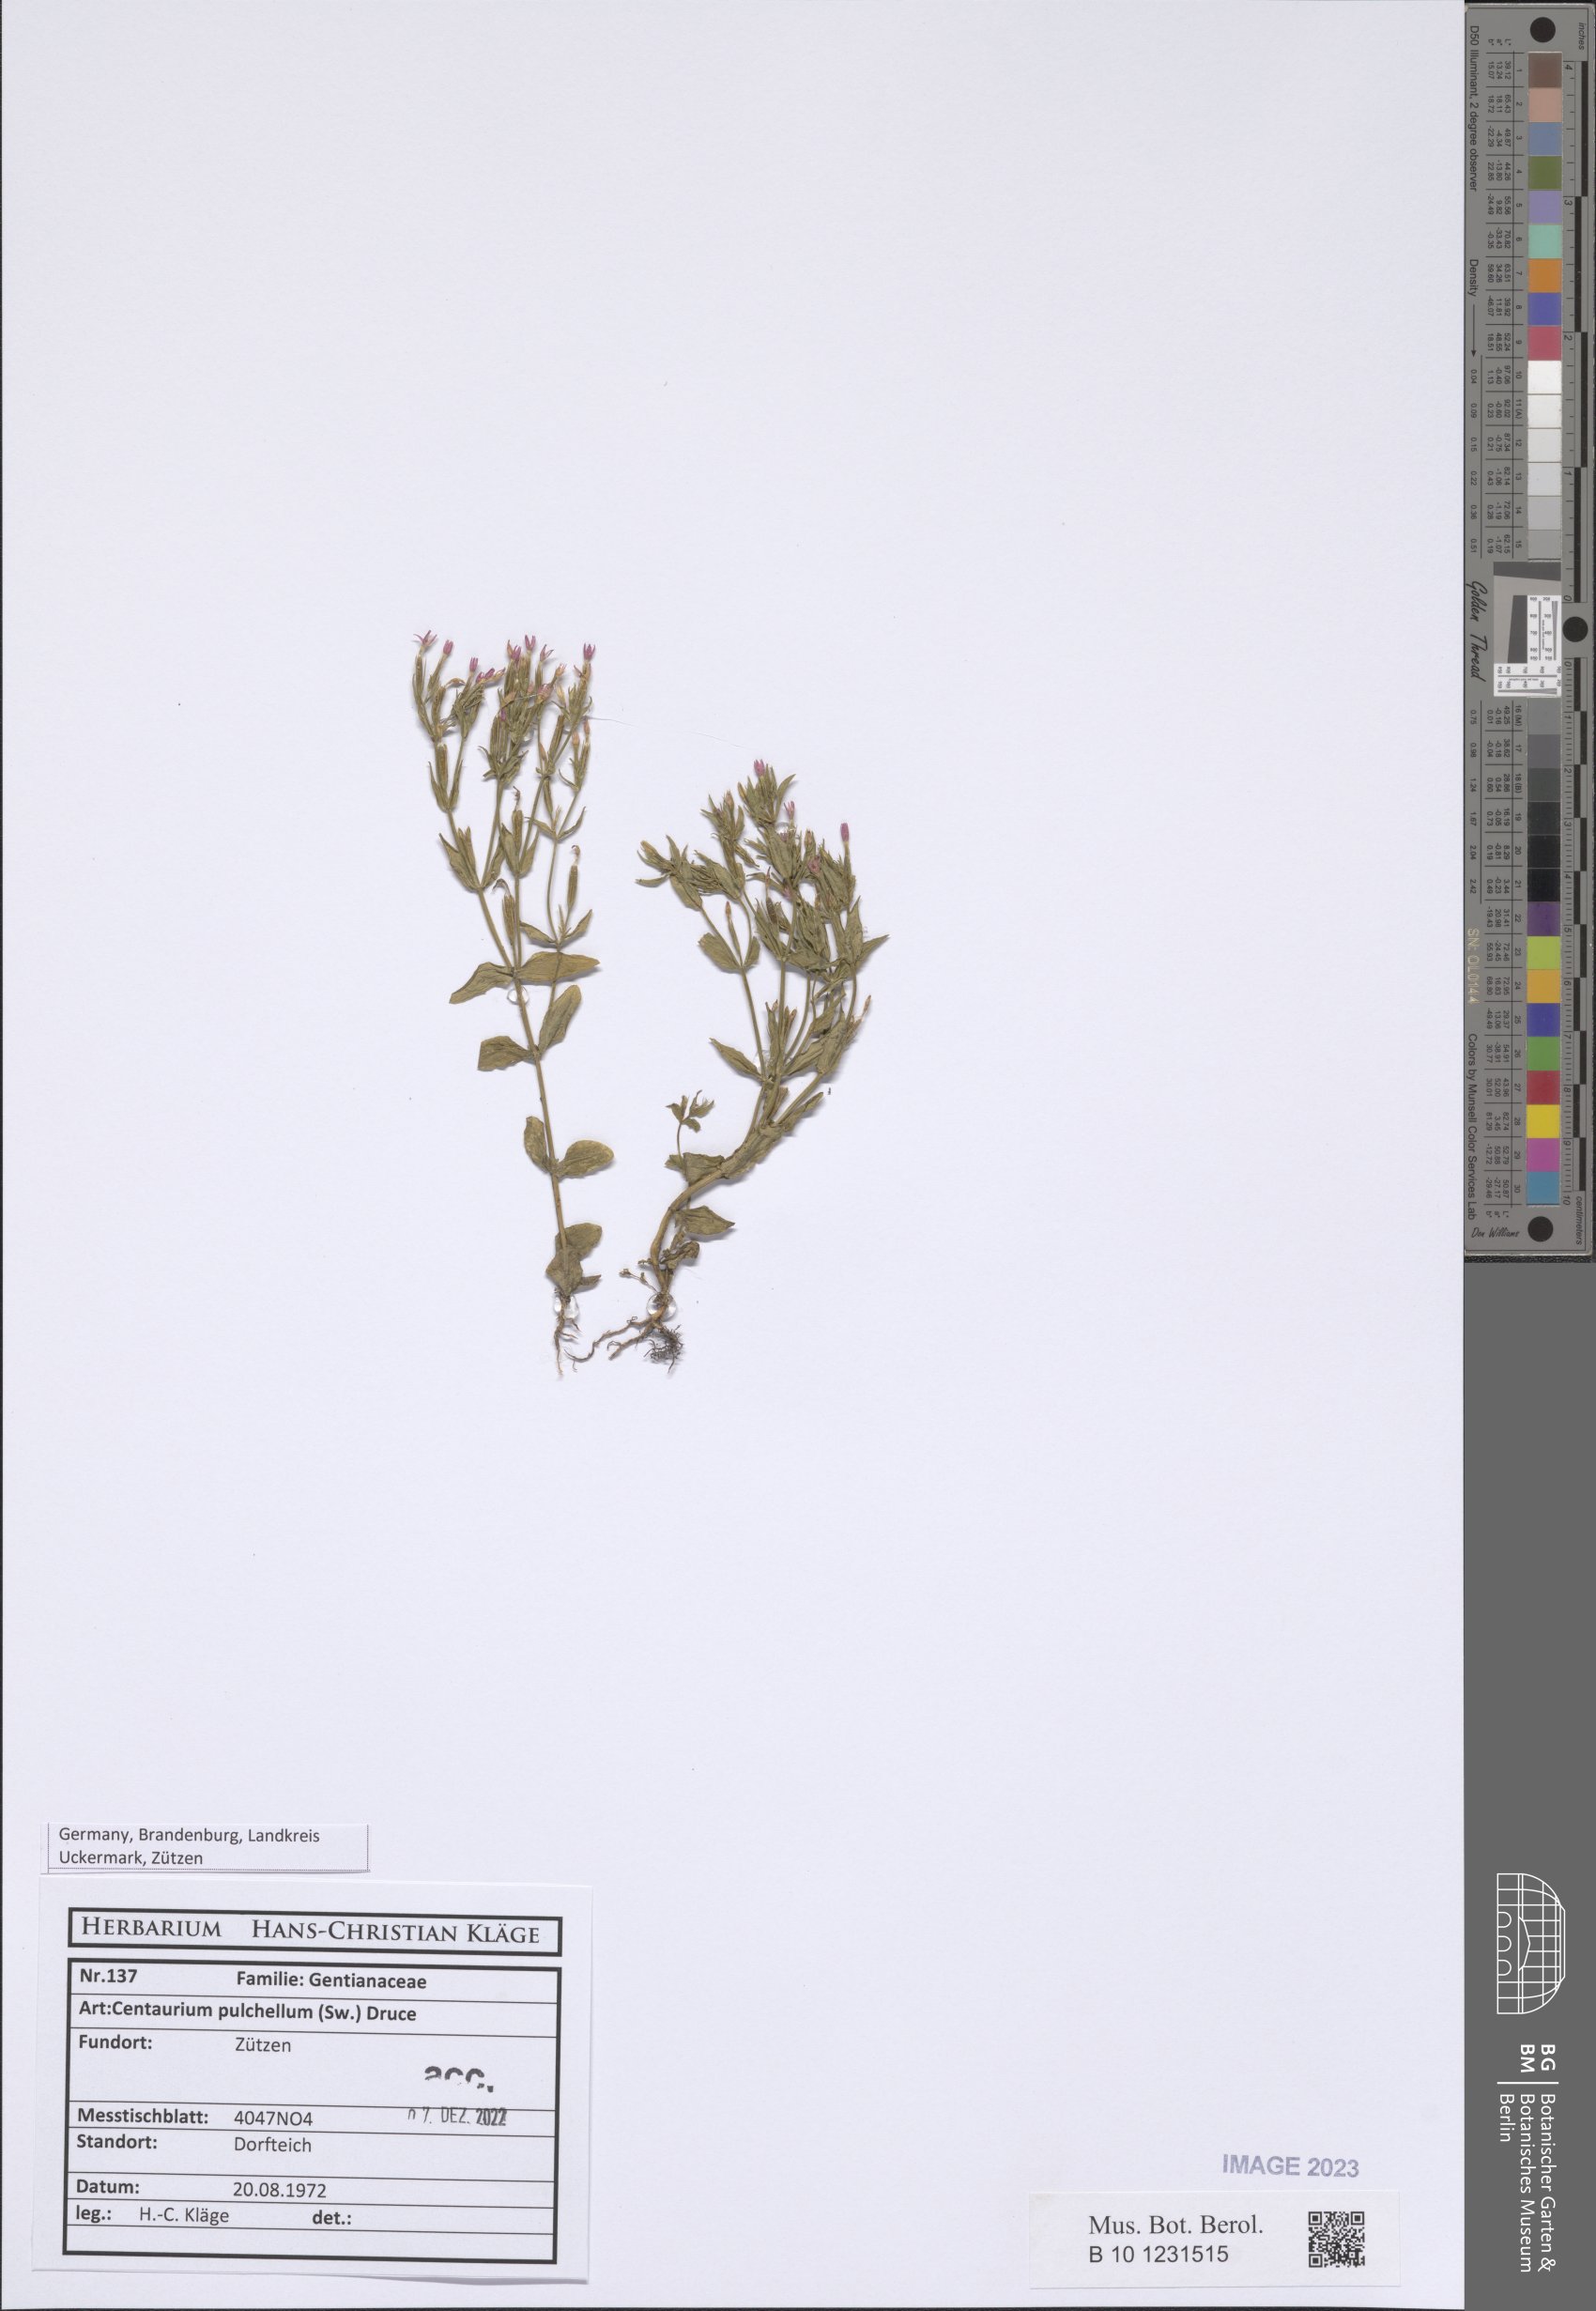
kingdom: Plantae
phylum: Tracheophyta
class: Magnoliopsida
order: Gentianales
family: Gentianaceae
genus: Centaurium
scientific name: Centaurium pulchellum
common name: Lesser centaury
